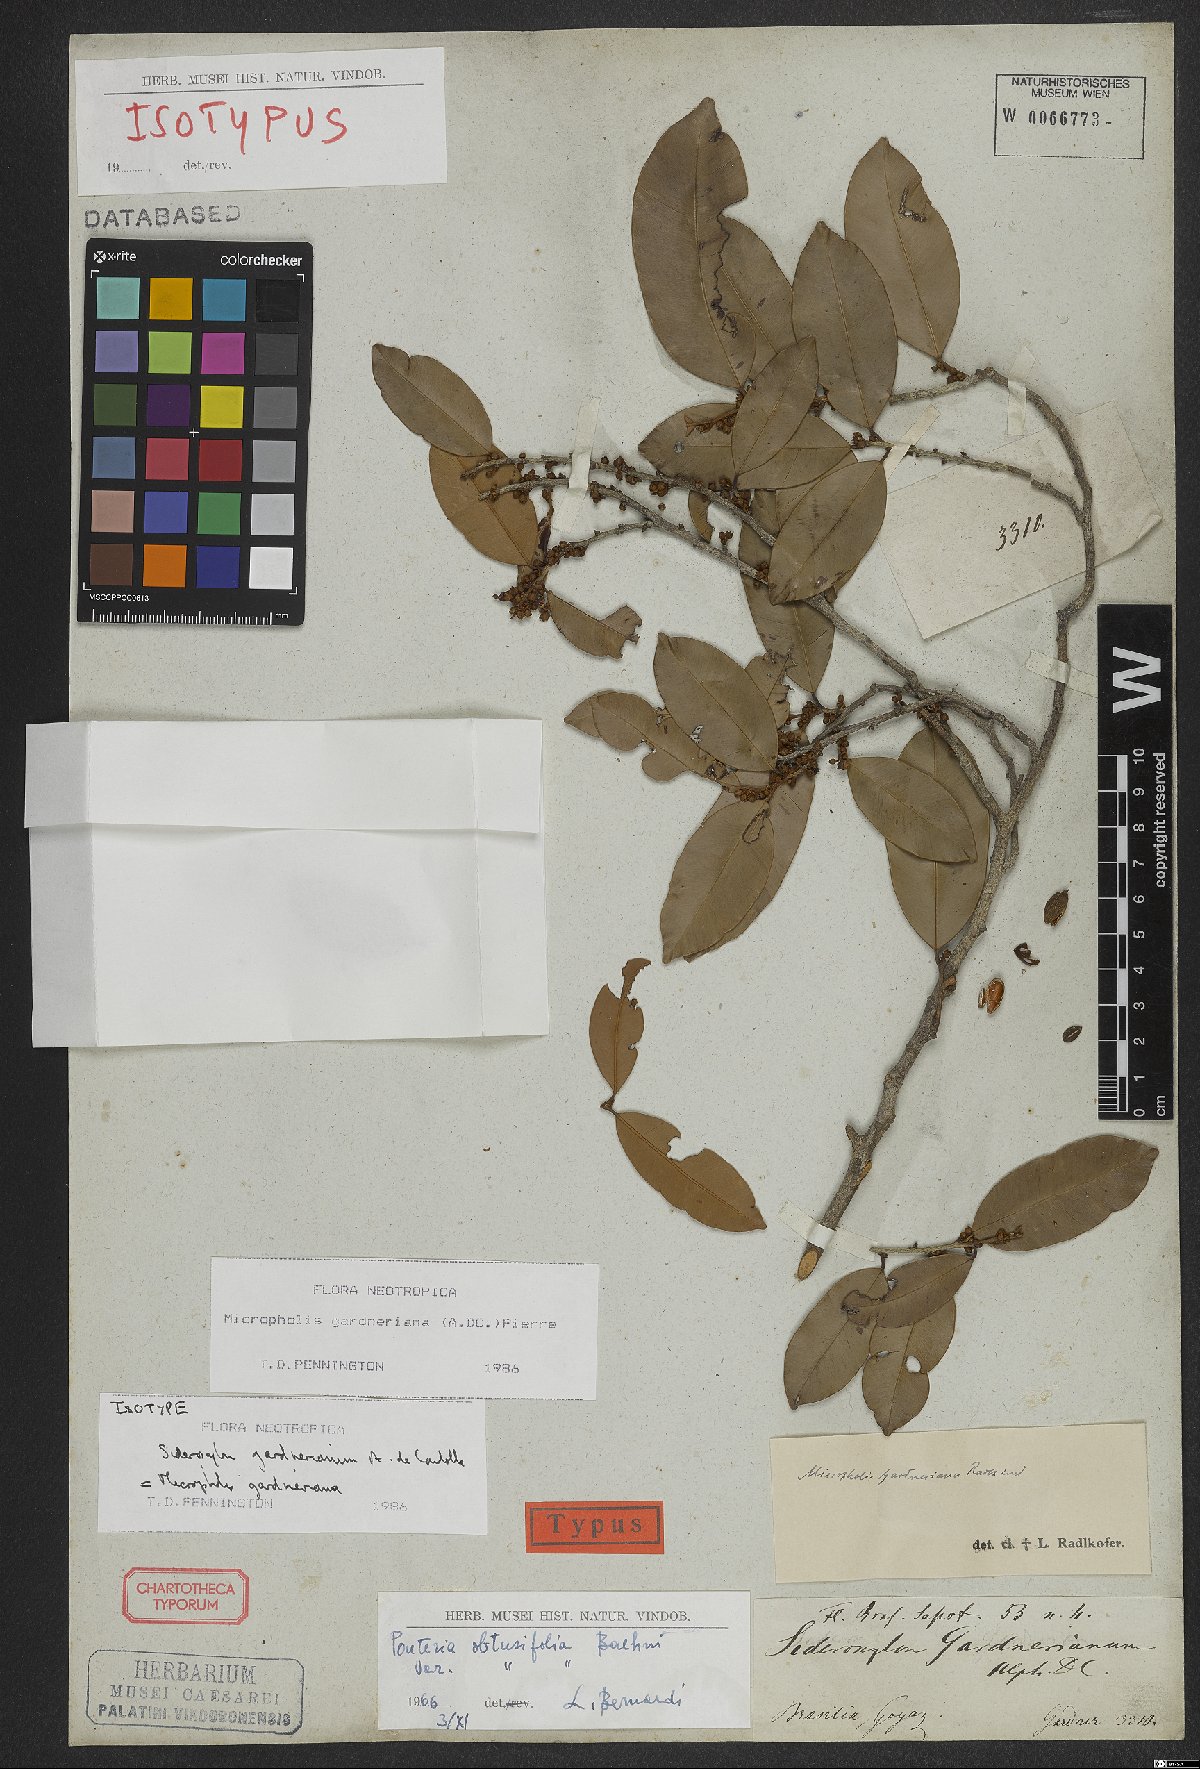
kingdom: Plantae
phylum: Tracheophyta
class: Magnoliopsida
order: Ericales
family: Sapotaceae
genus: Micropholis
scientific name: Micropholis gardneriana
